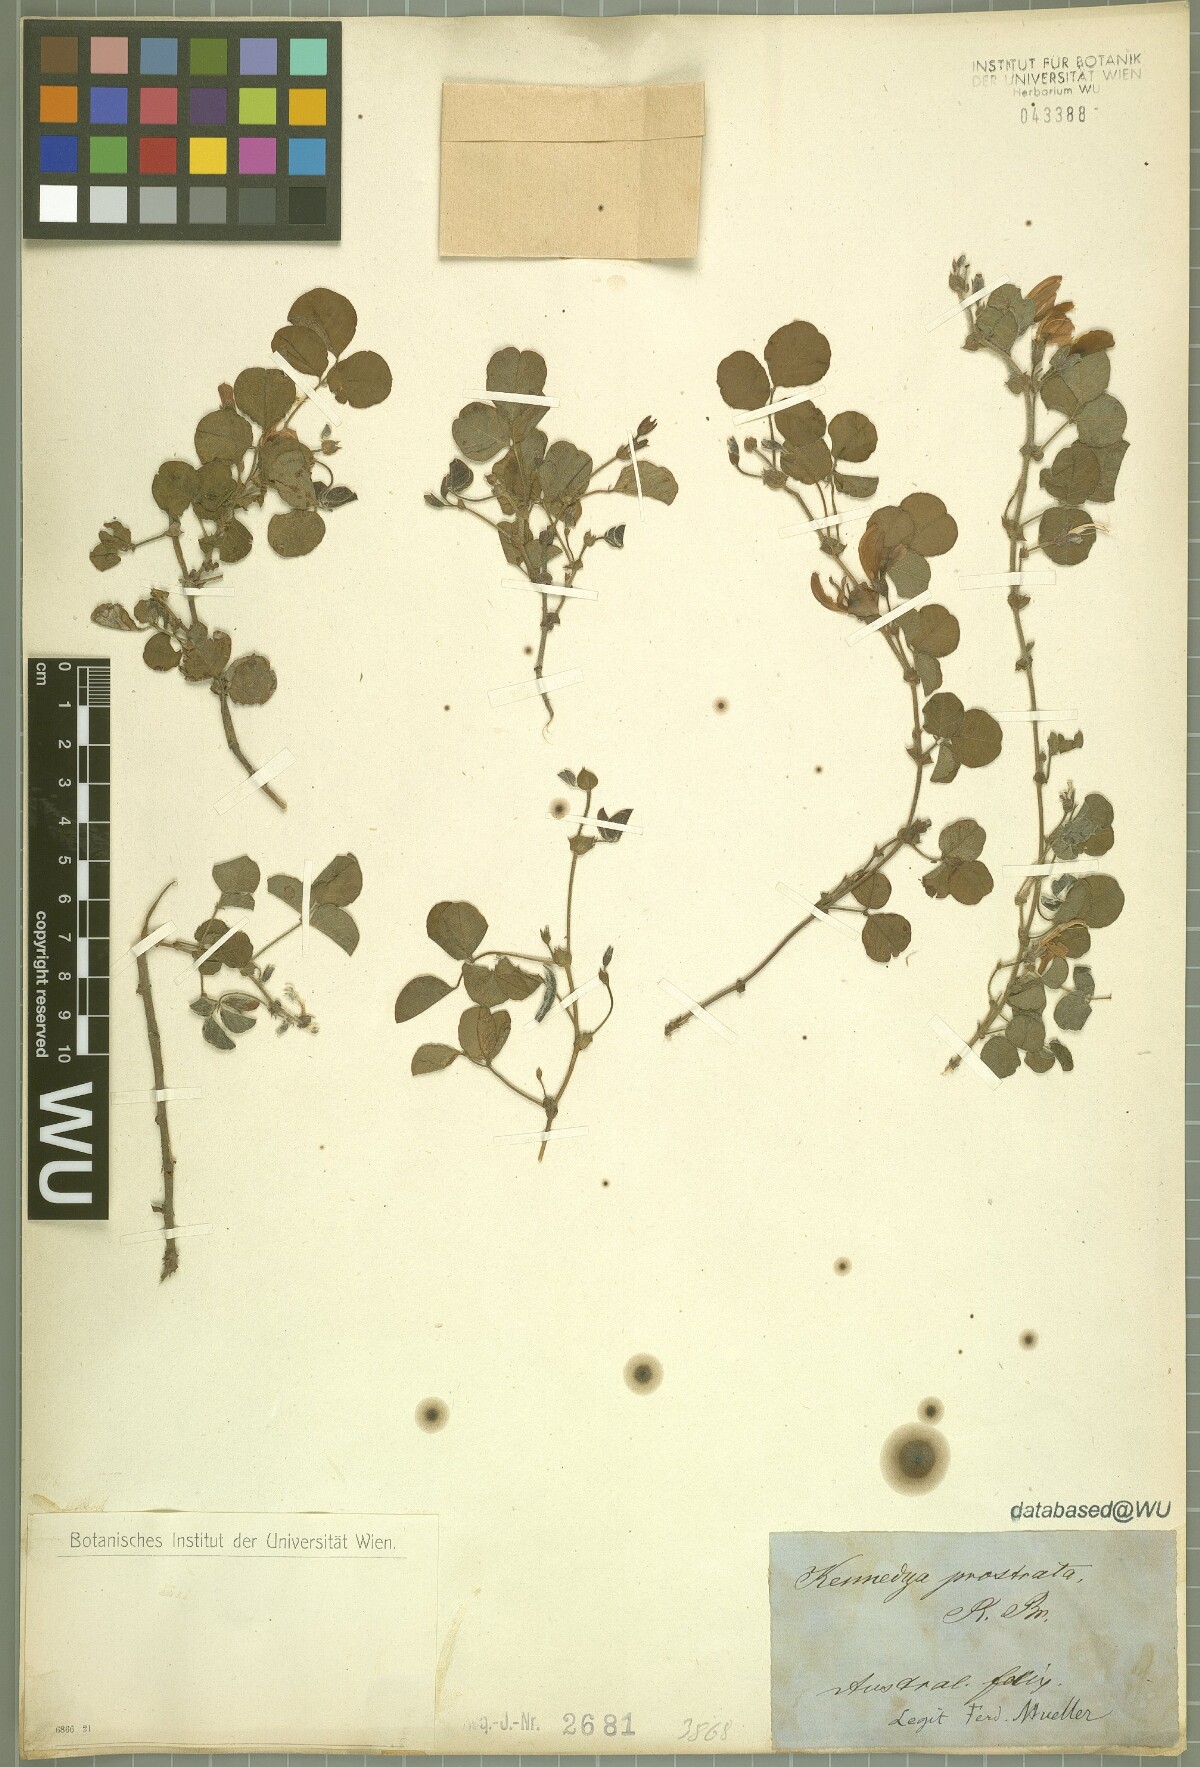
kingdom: Plantae
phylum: Tracheophyta
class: Magnoliopsida
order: Fabales
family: Fabaceae
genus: Kennedia
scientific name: Kennedia prostrata
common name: Running-postman
